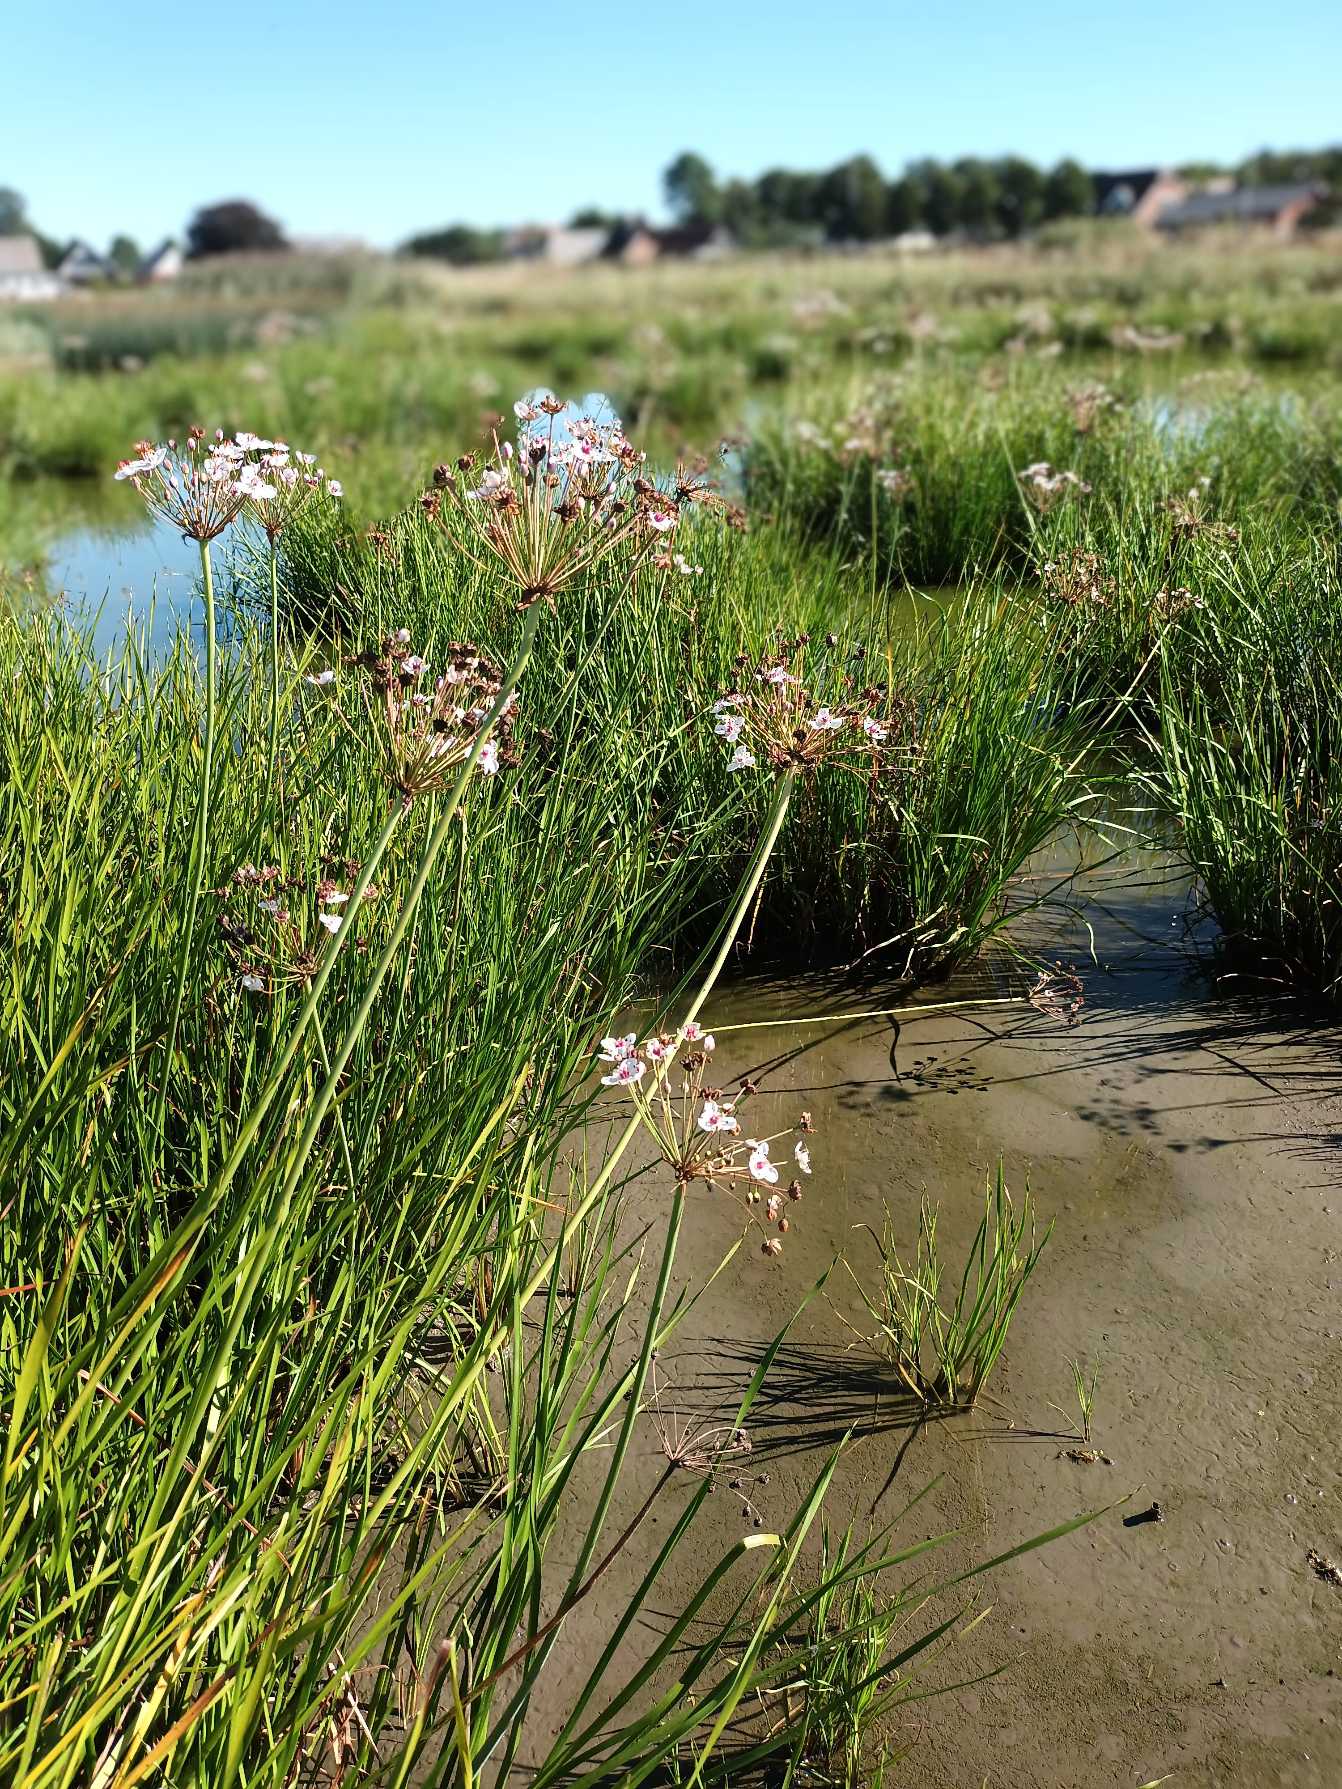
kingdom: Plantae
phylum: Tracheophyta
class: Liliopsida
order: Alismatales
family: Butomaceae
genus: Butomus
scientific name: Butomus umbellatus
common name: Brudelys
